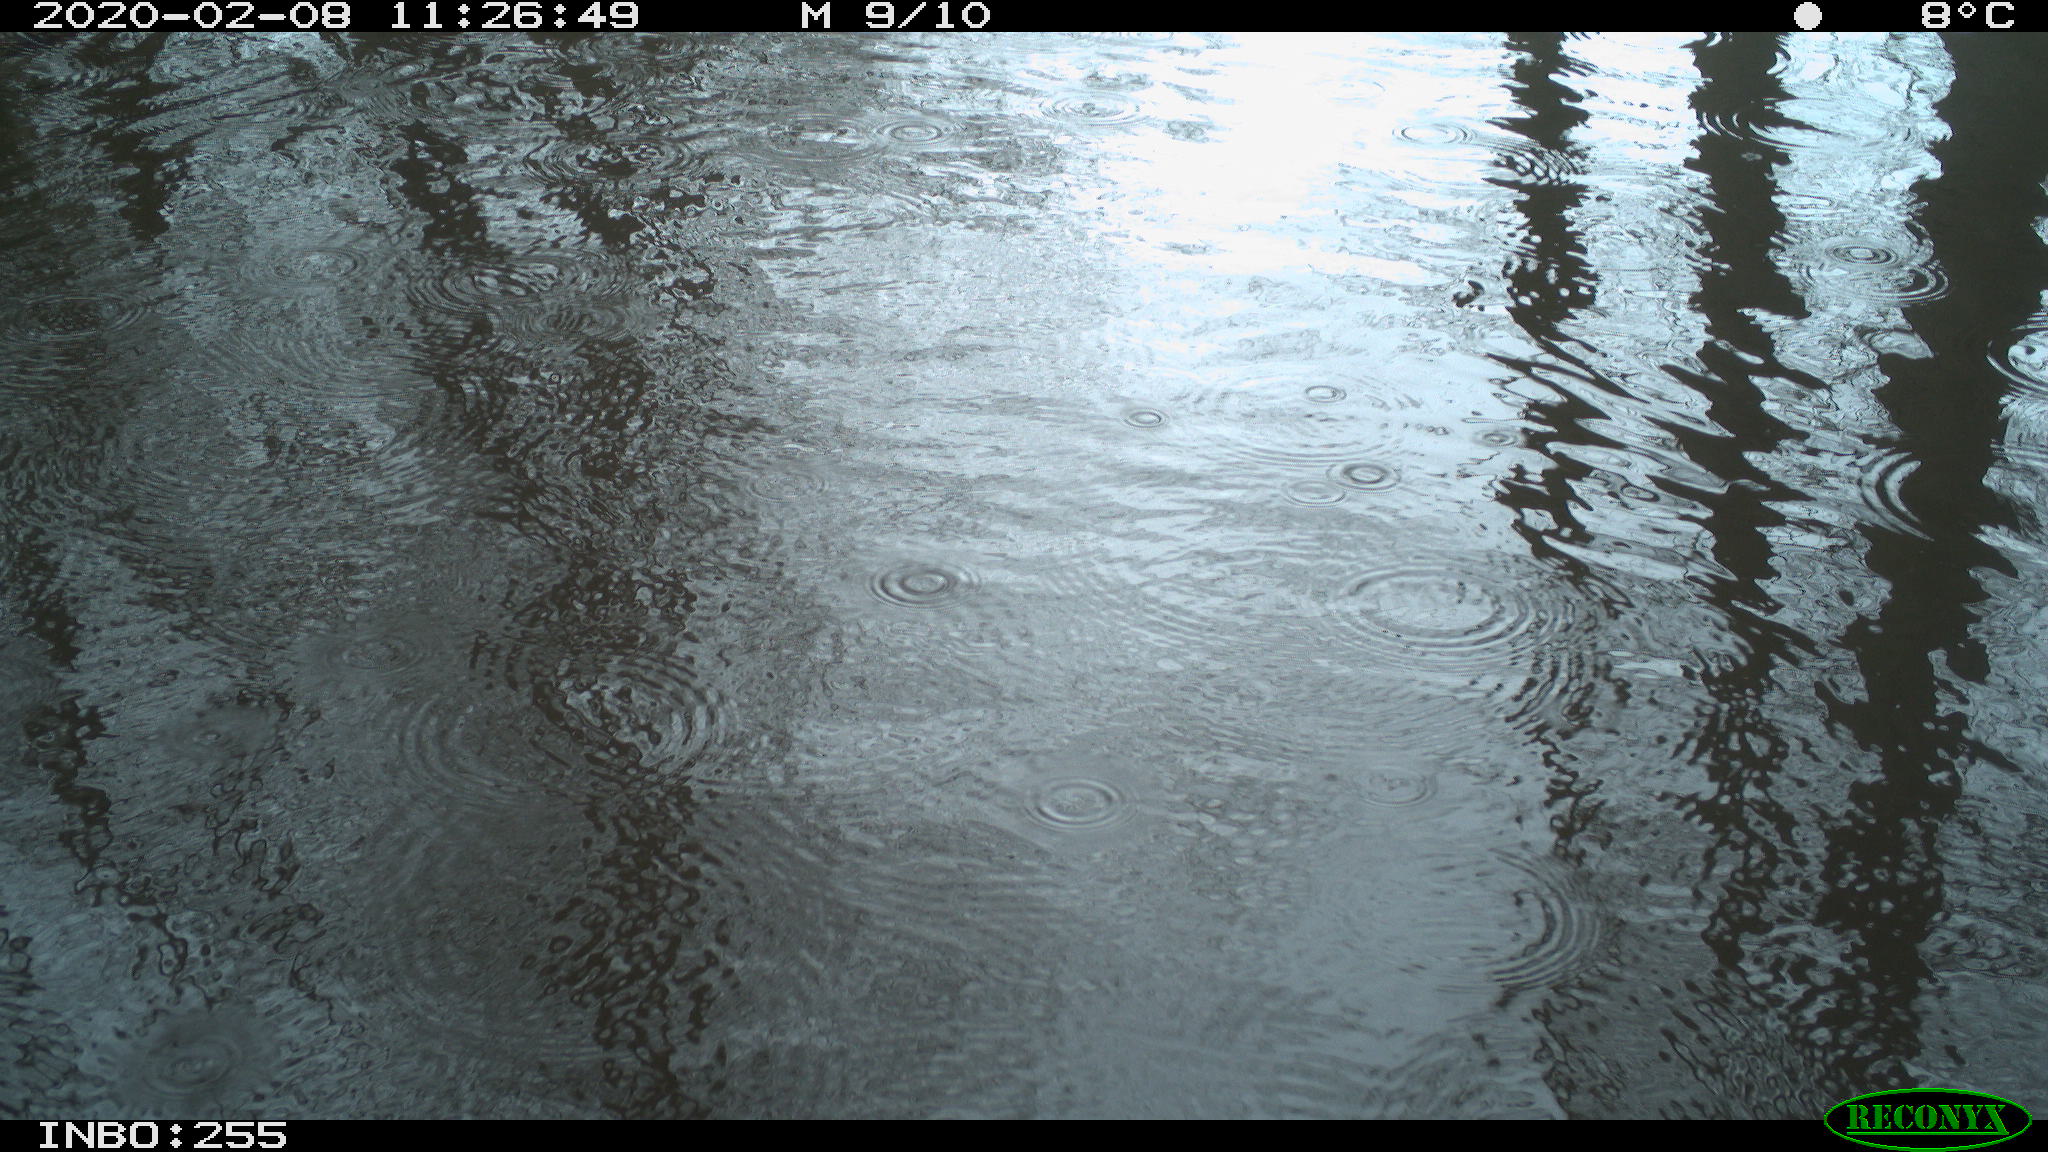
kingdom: Animalia
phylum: Chordata
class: Aves
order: Gruiformes
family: Rallidae
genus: Fulica
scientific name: Fulica atra
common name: Eurasian coot
